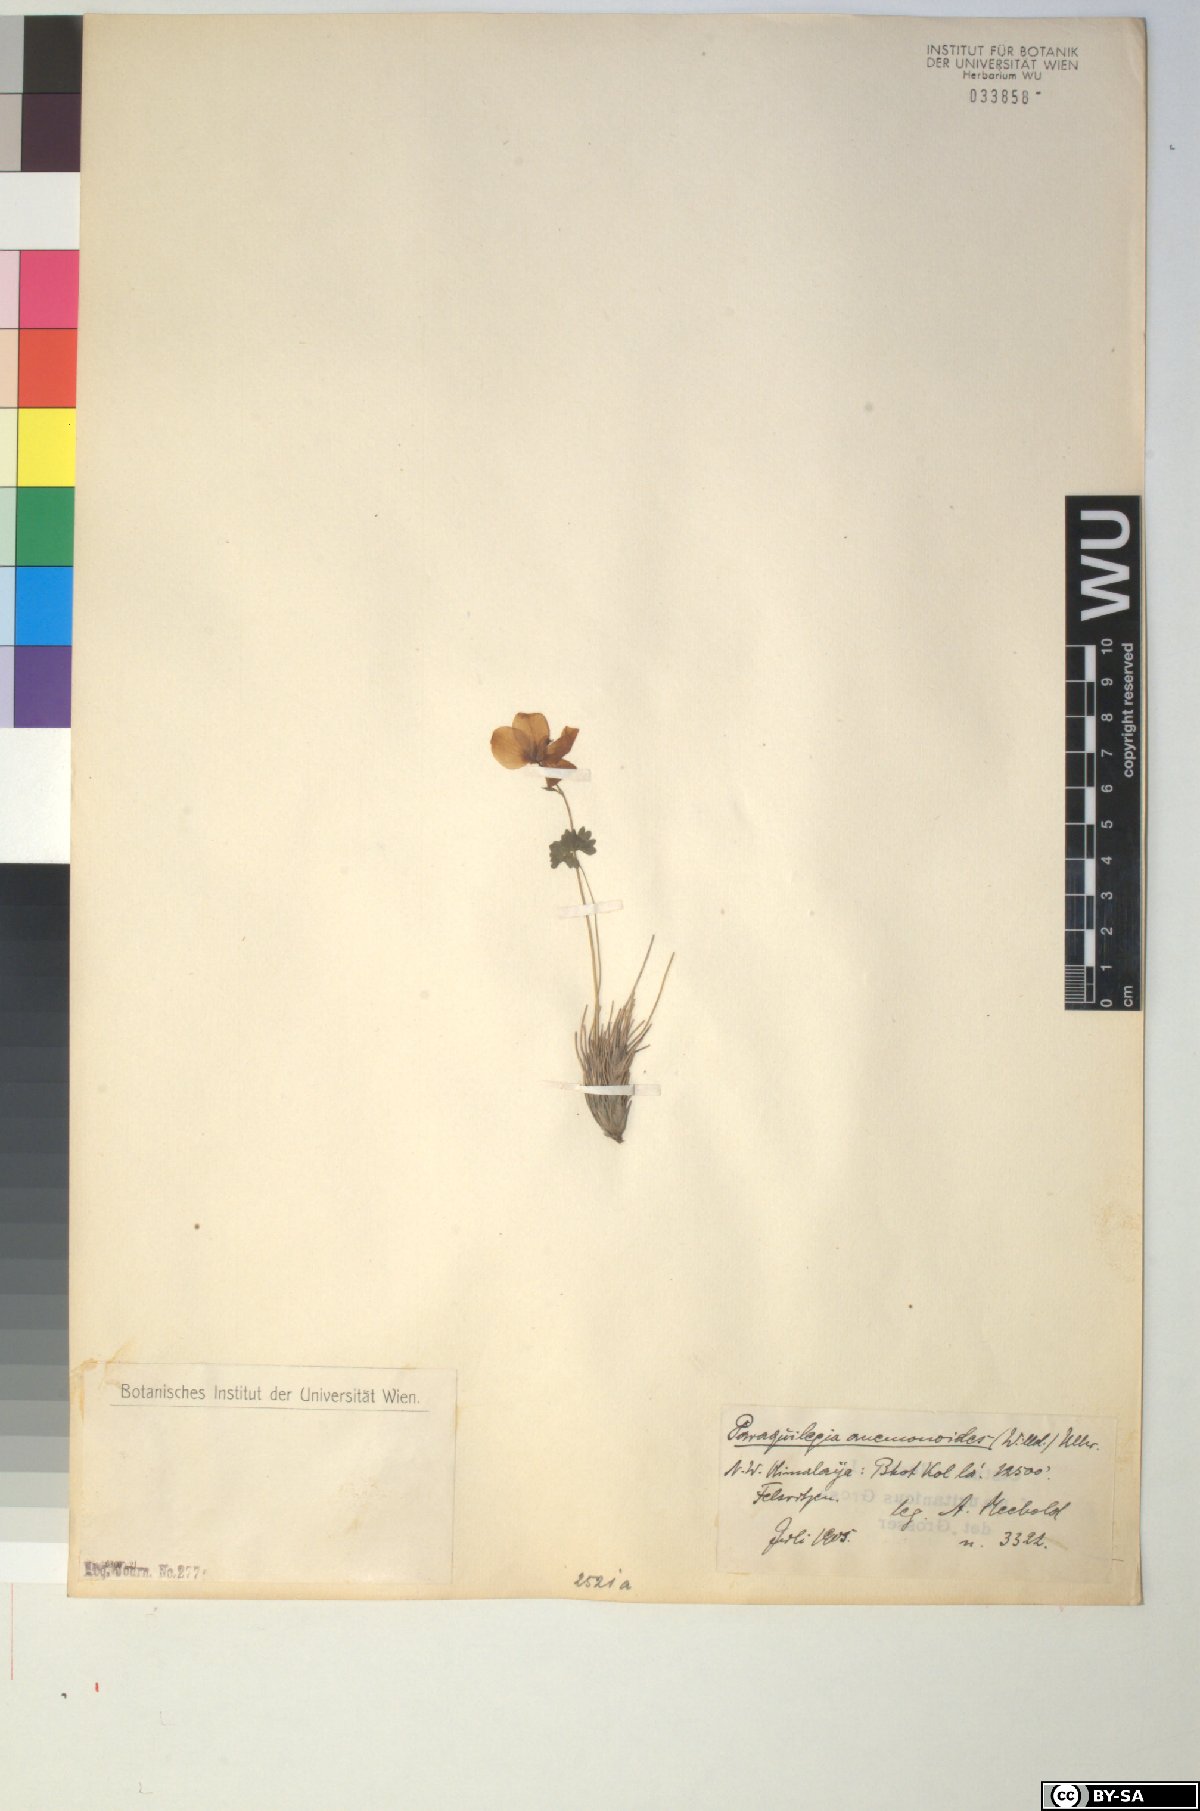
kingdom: Plantae
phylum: Tracheophyta
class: Magnoliopsida
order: Ranunculales
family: Ranunculaceae
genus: Paraquilegia
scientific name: Paraquilegia anemonoides
